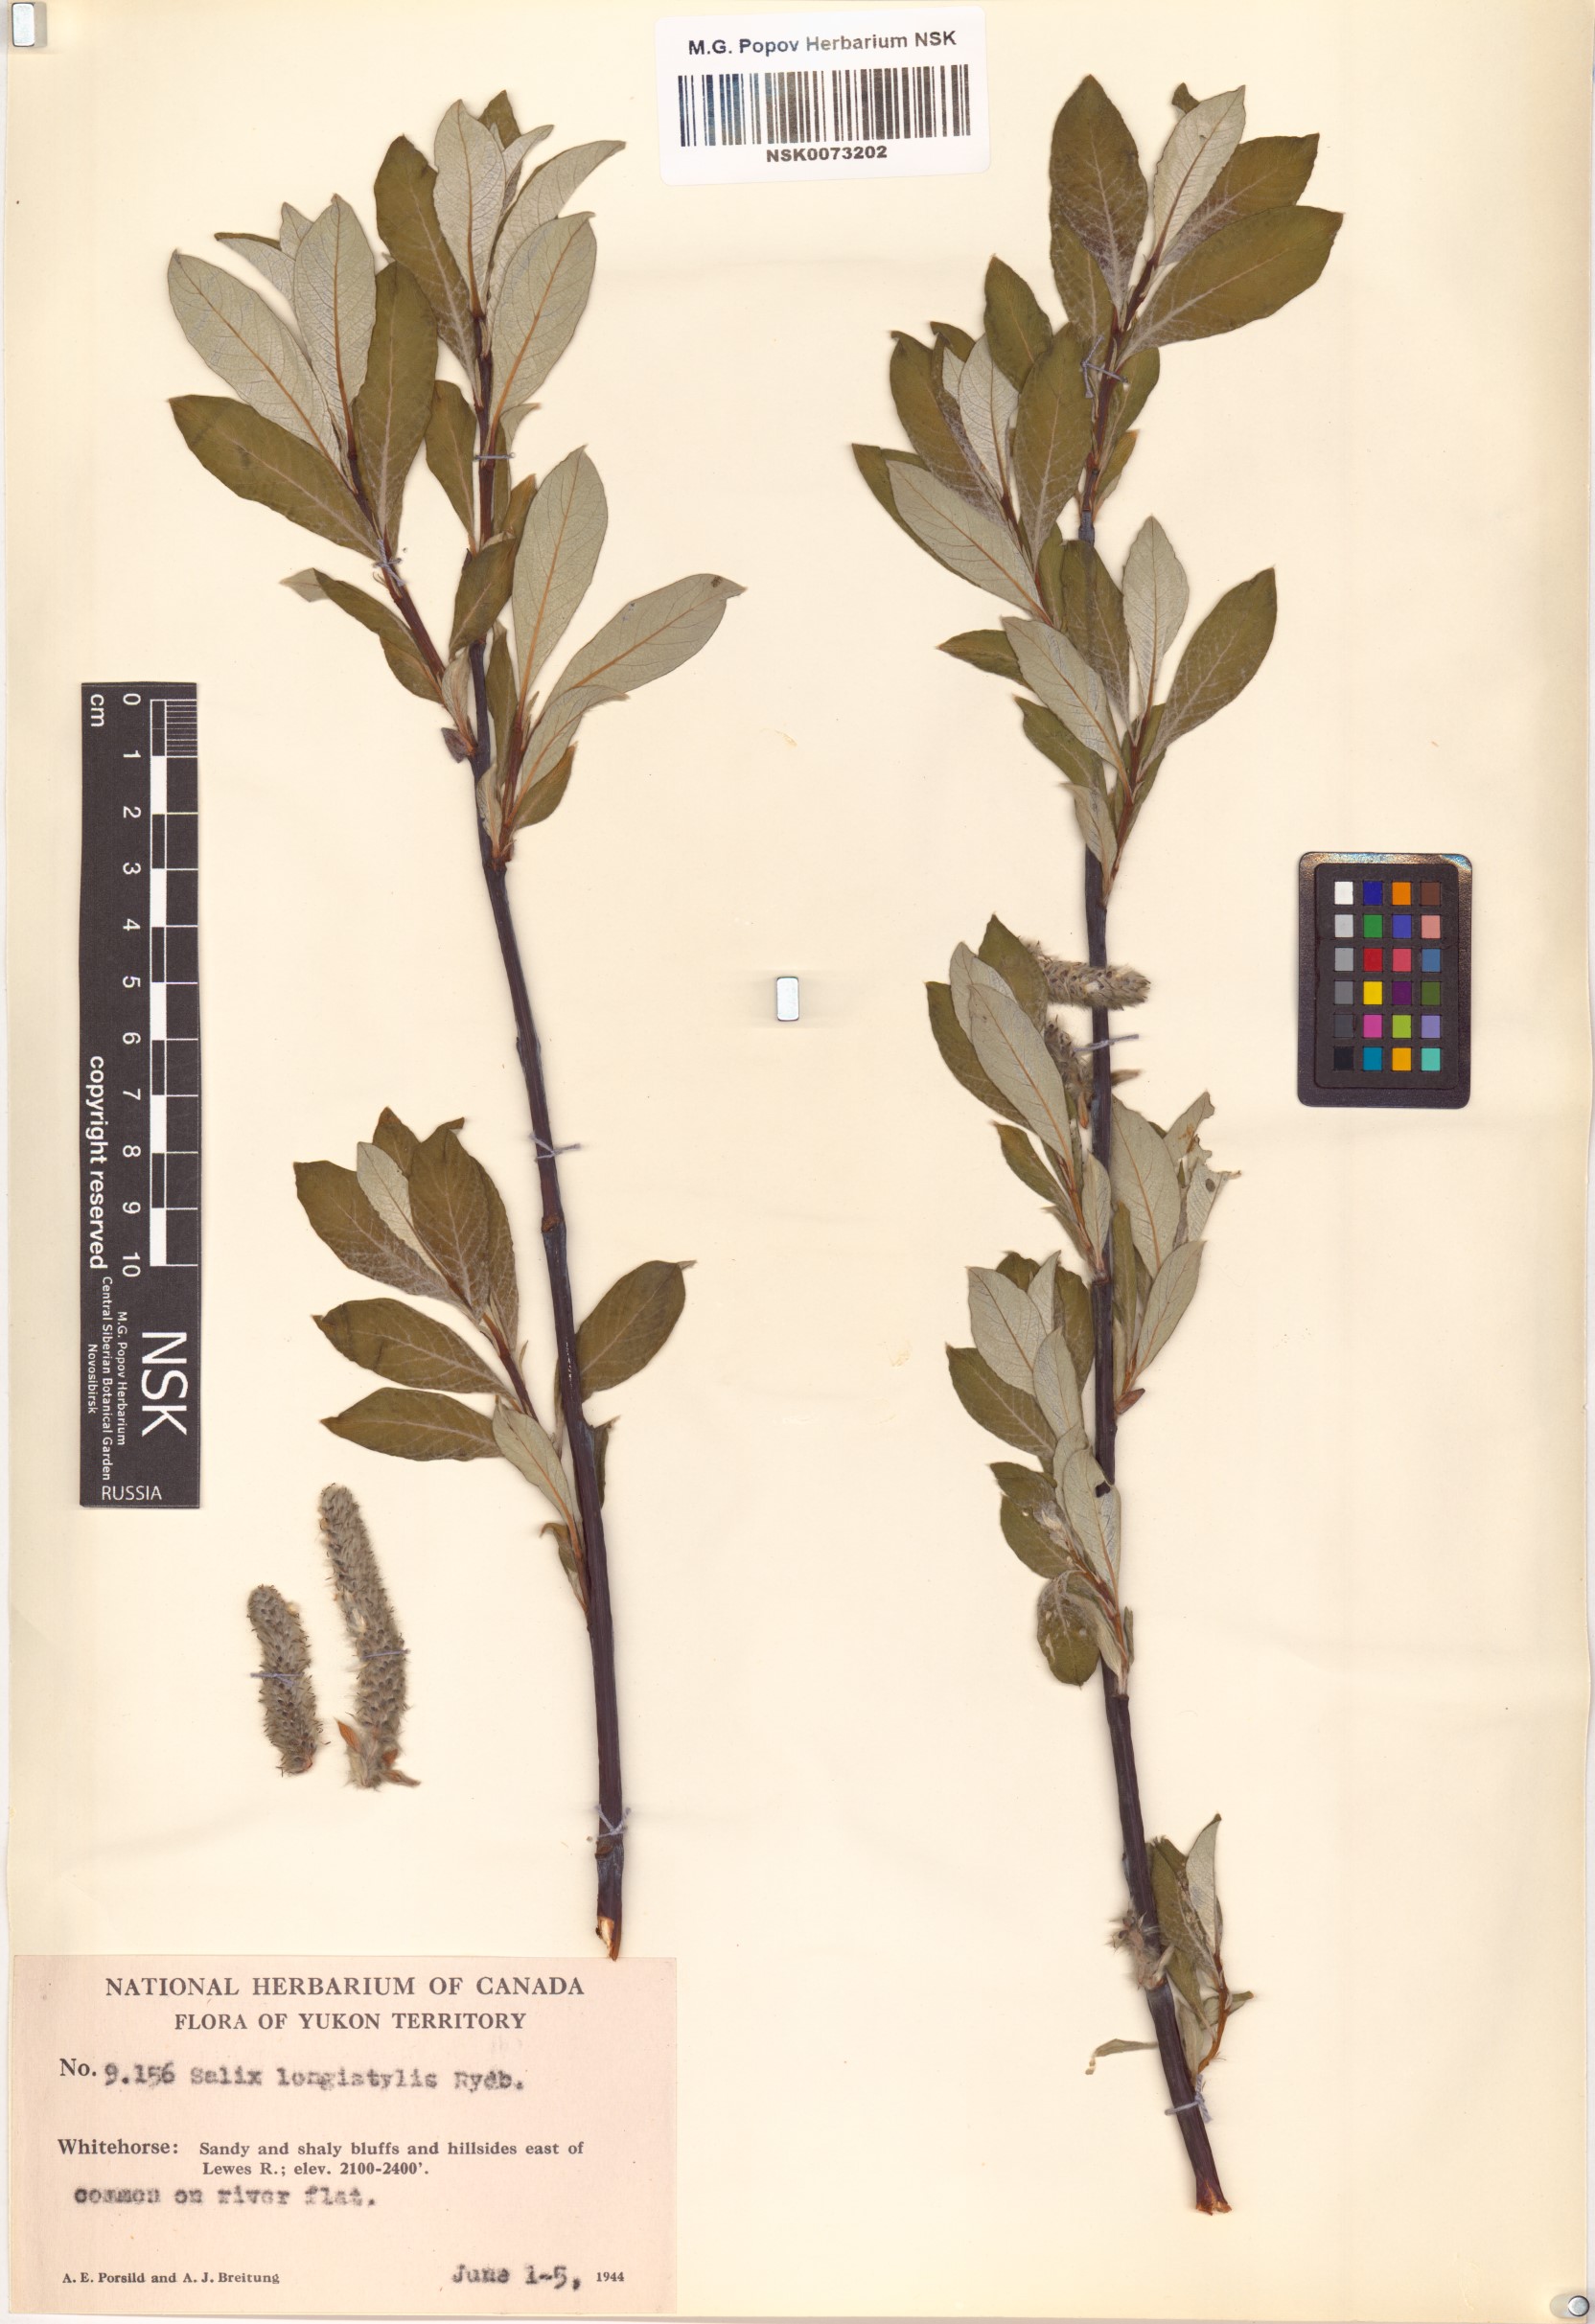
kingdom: Plantae
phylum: Tracheophyta
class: Magnoliopsida
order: Malpighiales
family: Salicaceae
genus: Salix
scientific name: Salix alaxensis
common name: Feltleaf willow
